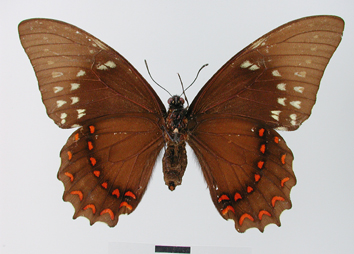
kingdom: Animalia
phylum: Arthropoda
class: Insecta
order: Lepidoptera
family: Papilionidae
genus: Papilio
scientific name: Papilio menatius
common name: Victorine swallowtail
